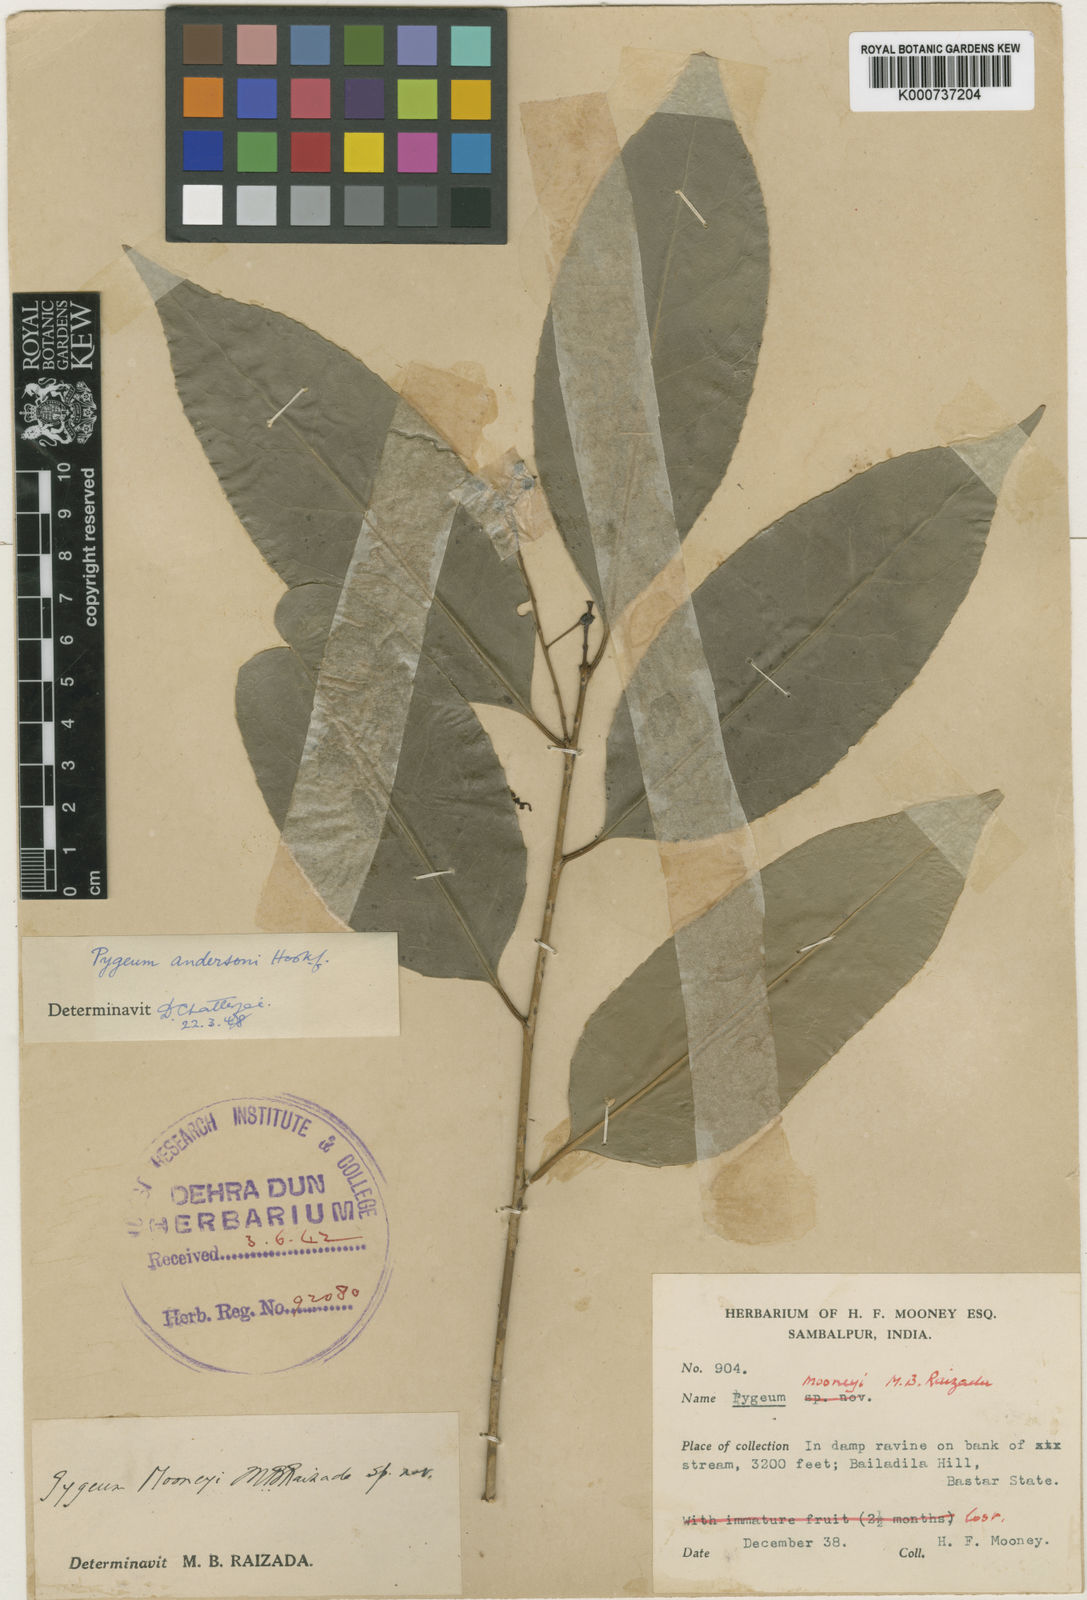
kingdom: Plantae
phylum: Tracheophyta
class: Magnoliopsida
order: Rosales
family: Rosaceae
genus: Prunus
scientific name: Prunus pygeoides
